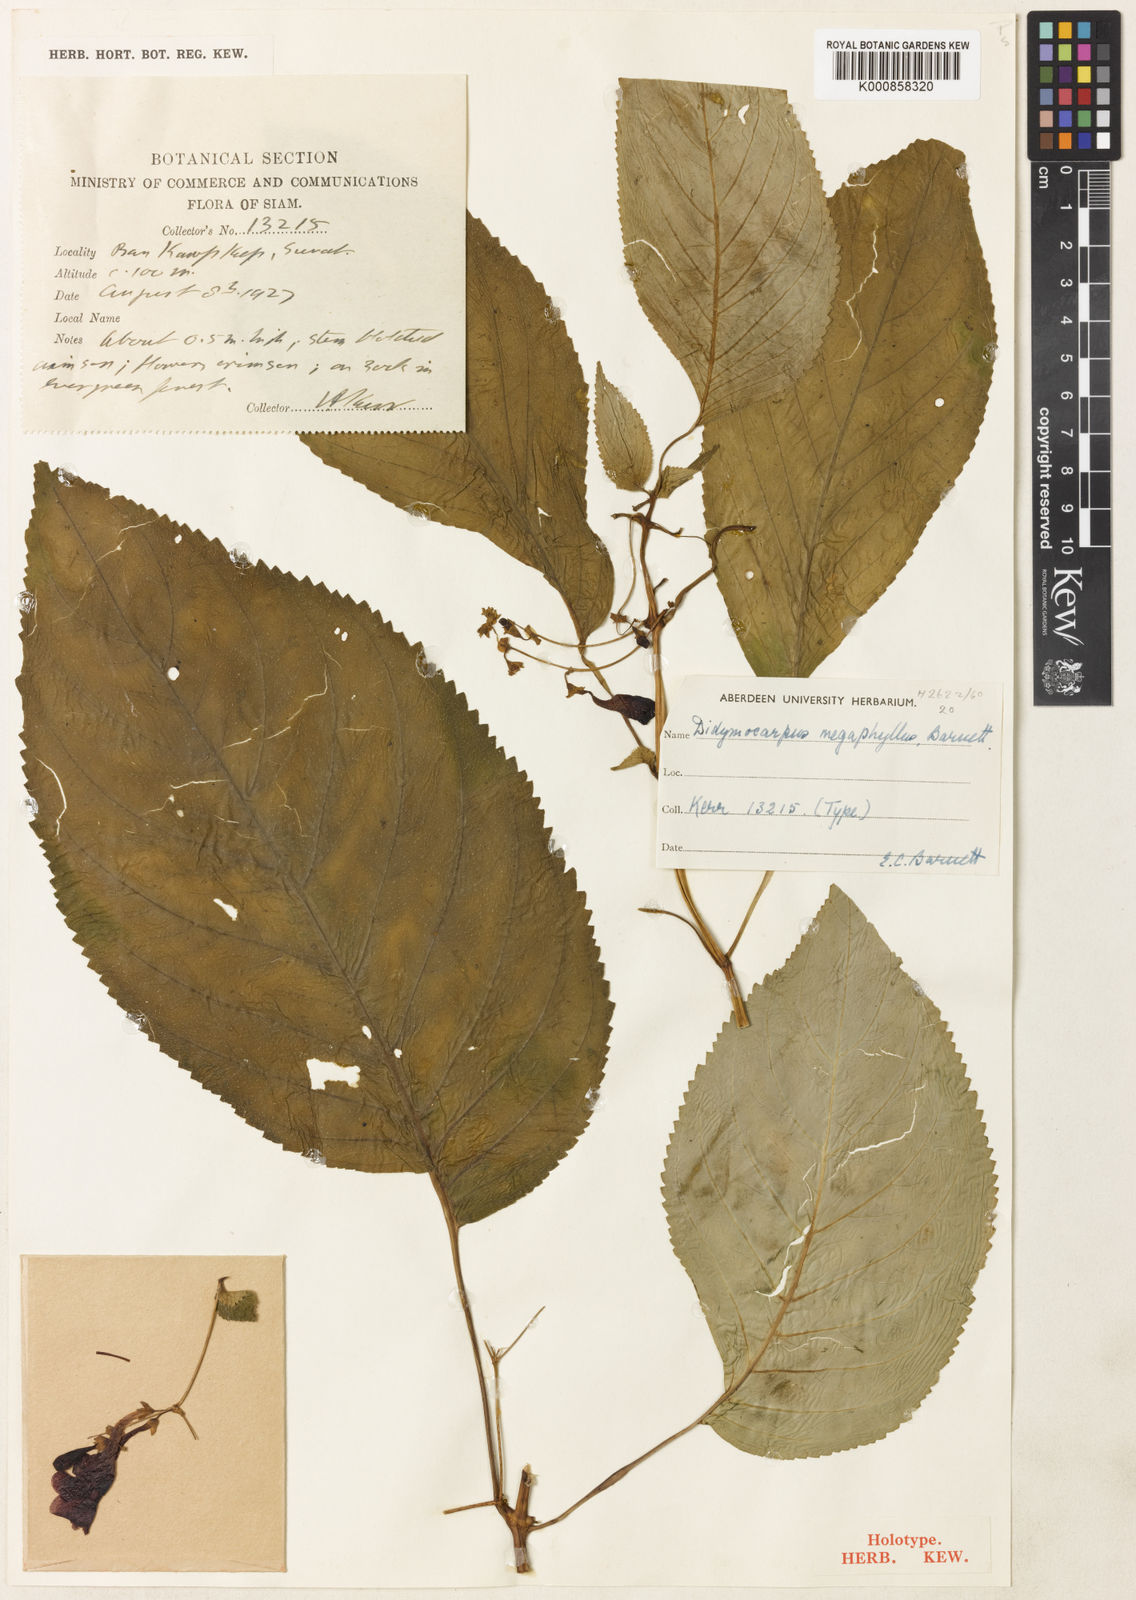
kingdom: Plantae
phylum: Tracheophyta
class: Magnoliopsida
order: Lamiales
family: Gesneriaceae
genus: Didymocarpus
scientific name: Didymocarpus megaphyllus
